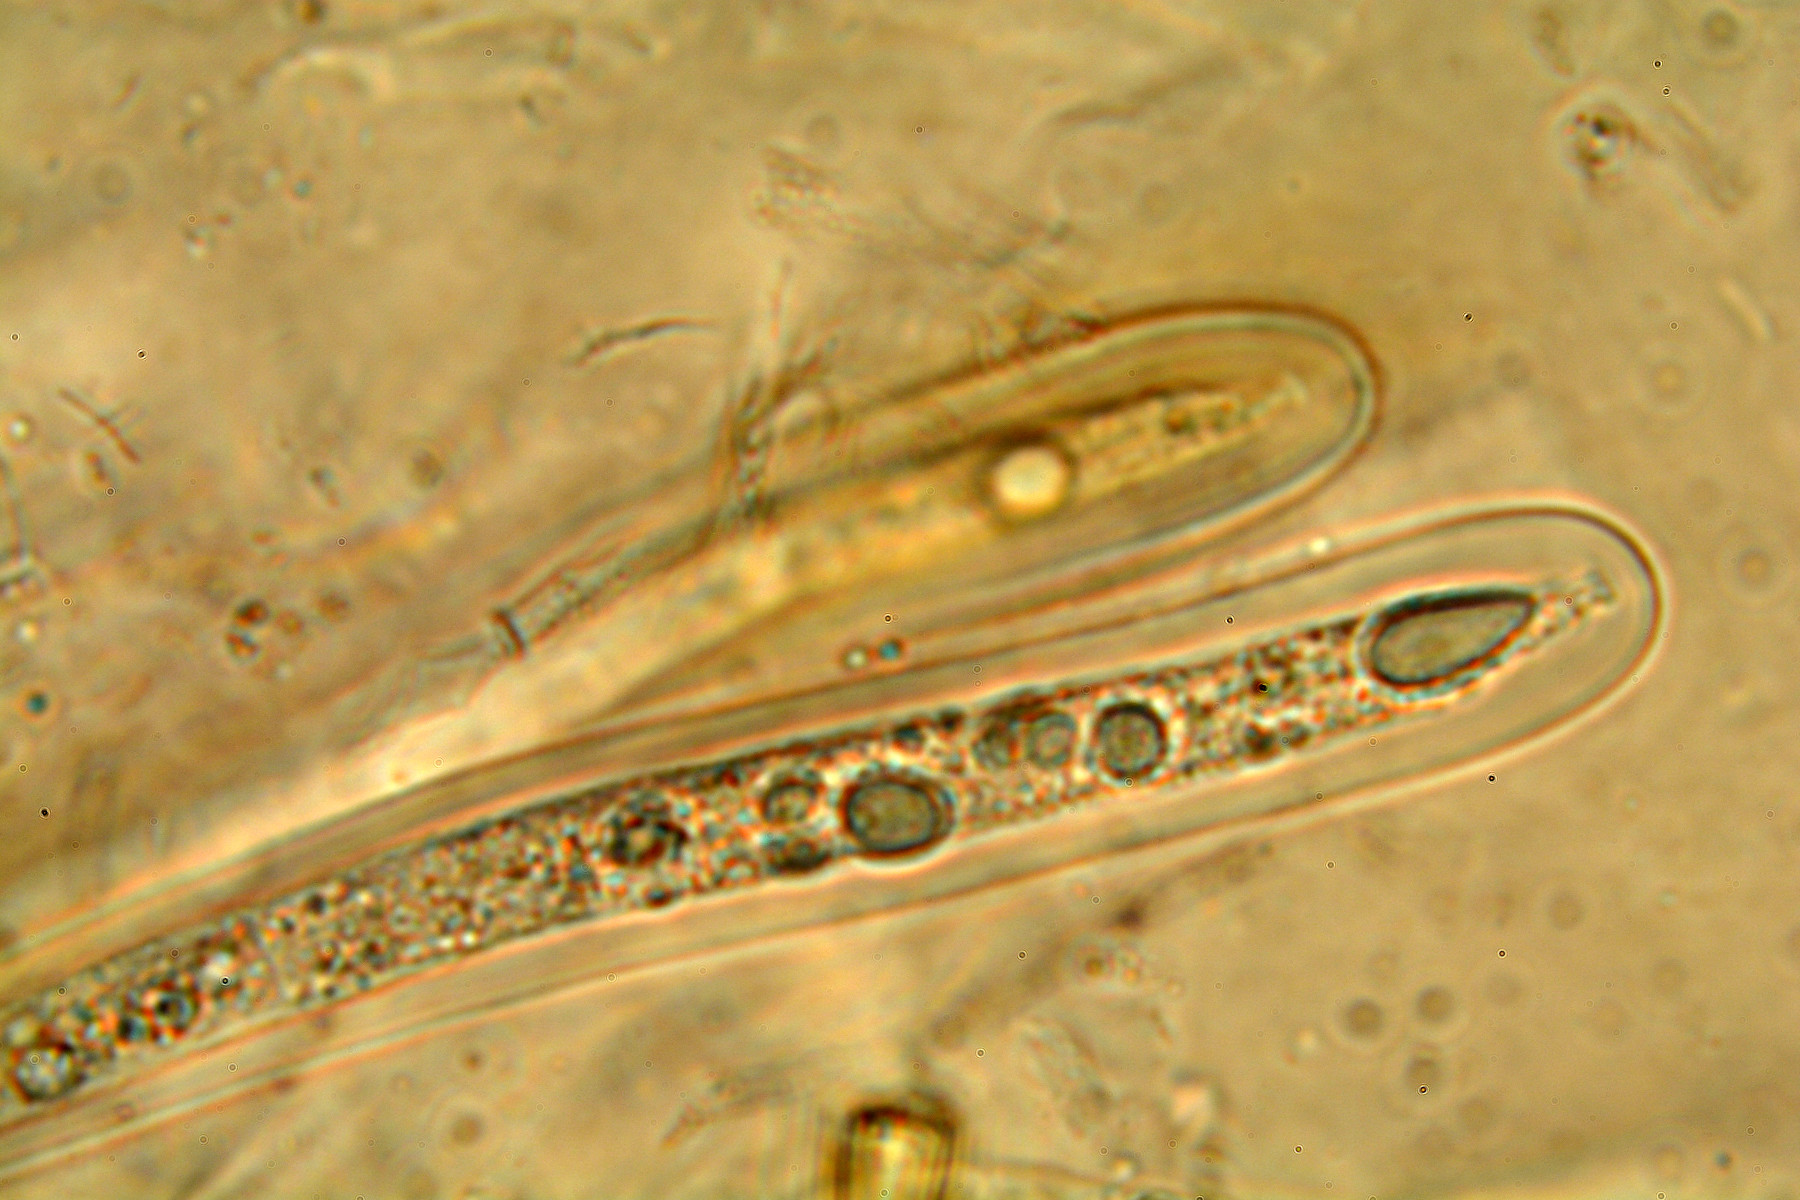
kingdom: Fungi
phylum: Ascomycota
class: Dothideomycetes
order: Pleosporales
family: Leptosphaeriaceae
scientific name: Leptosphaeriaceae
